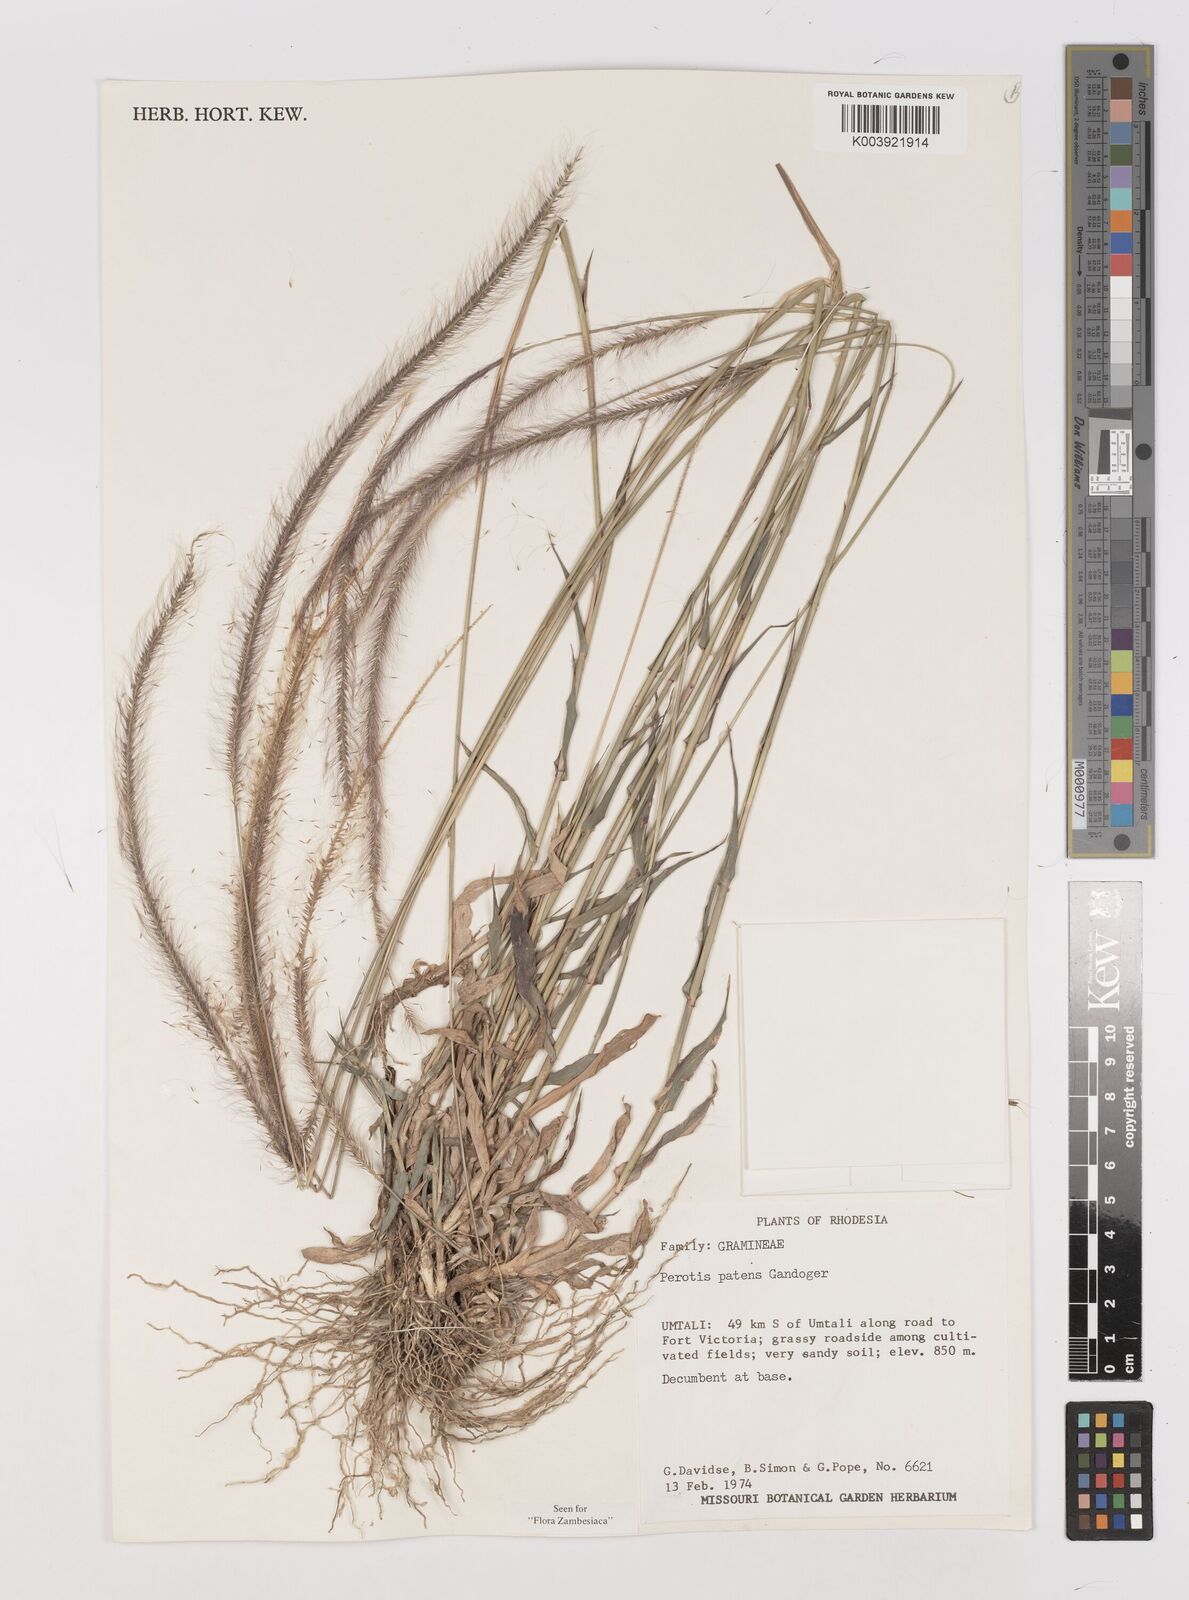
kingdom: Plantae
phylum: Tracheophyta
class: Liliopsida
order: Poales
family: Poaceae
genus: Perotis
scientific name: Perotis patens
